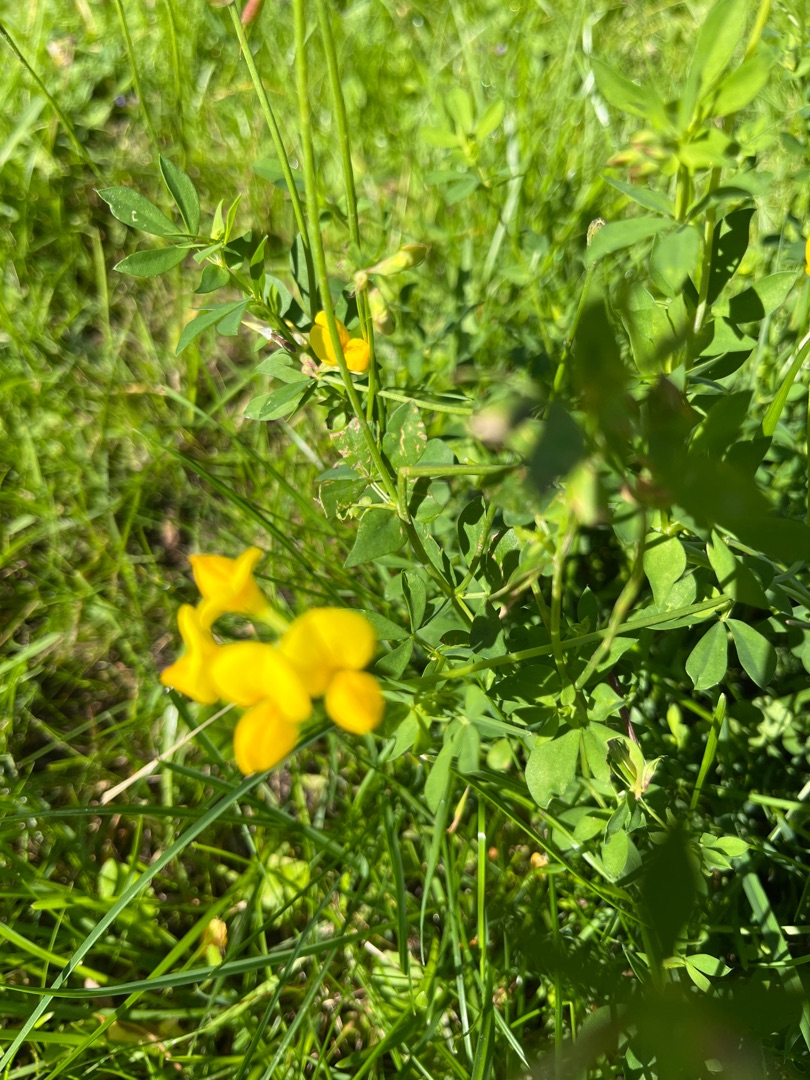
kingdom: Plantae
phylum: Tracheophyta
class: Magnoliopsida
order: Fabales
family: Fabaceae
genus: Lotus
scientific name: Lotus corniculatus
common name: Almindelig kællingetand
